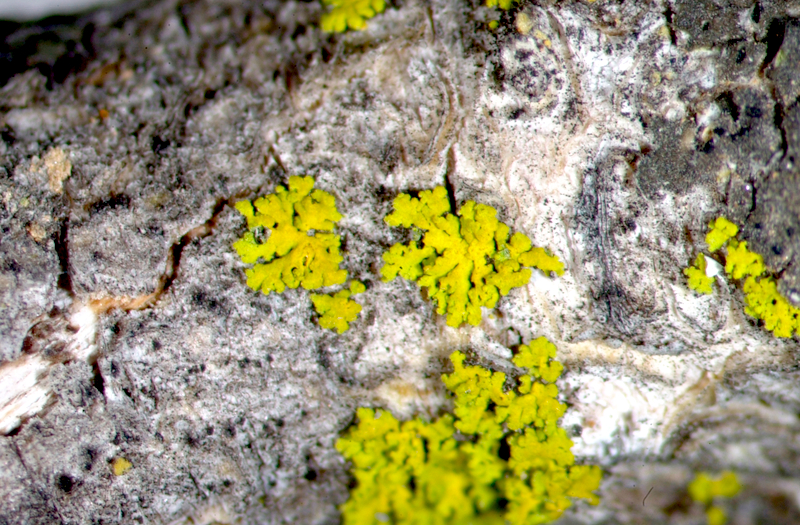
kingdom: Fungi
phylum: Ascomycota
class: Lecanoromycetes
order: Caliciales
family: Physciaceae
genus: Hyperphyscia
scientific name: Hyperphyscia syncolla
